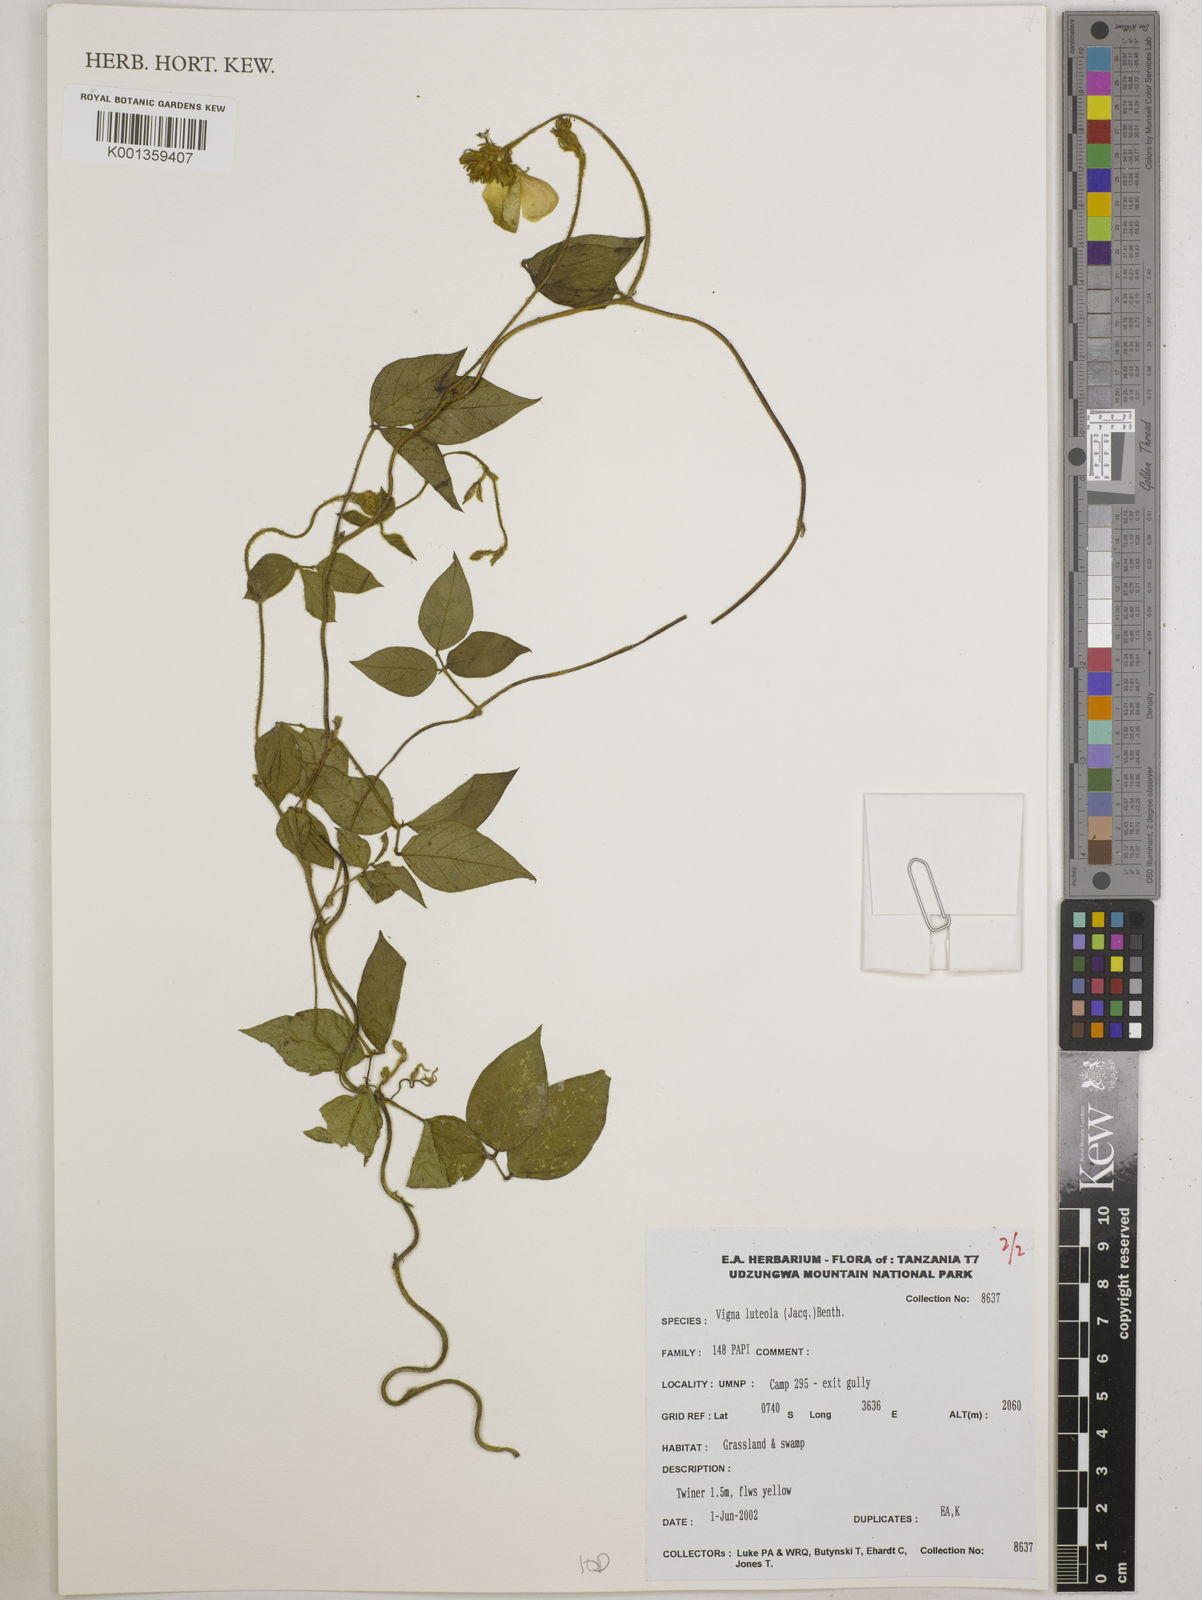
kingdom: Plantae
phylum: Tracheophyta
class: Magnoliopsida
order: Fabales
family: Fabaceae
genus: Vigna
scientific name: Vigna luteola
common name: Hairypod cowpea
